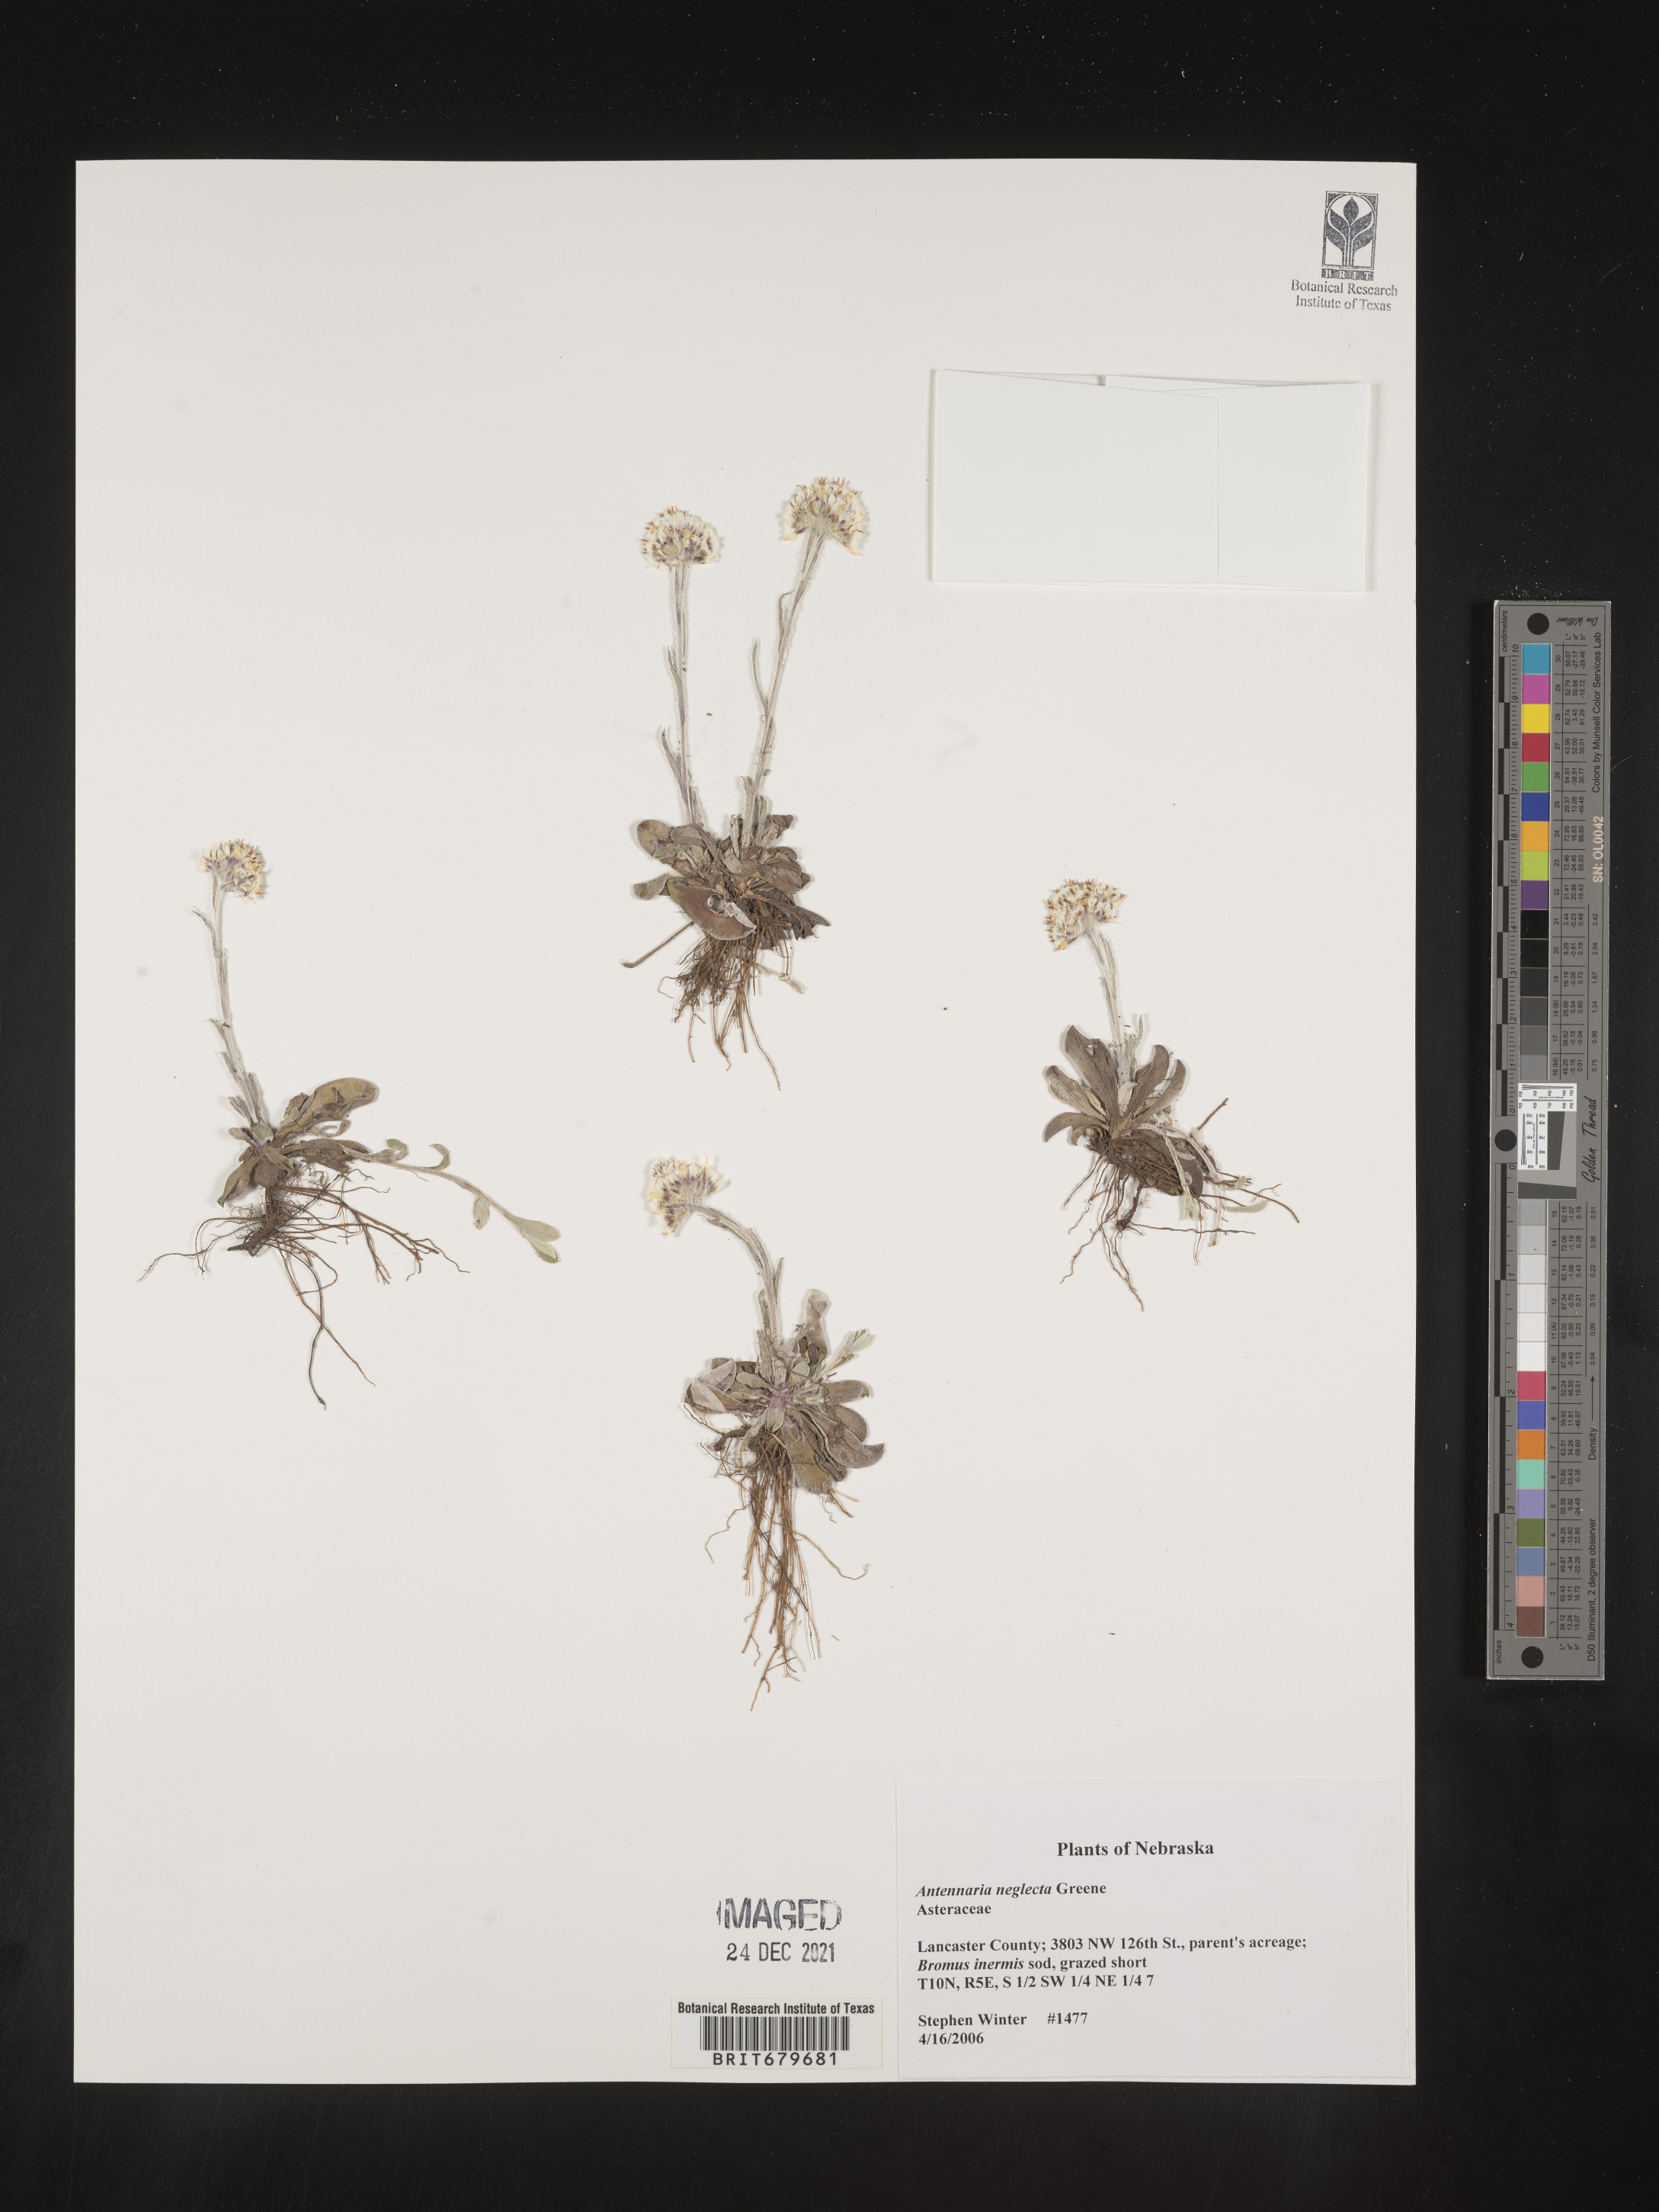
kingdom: Plantae
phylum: Tracheophyta
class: Magnoliopsida
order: Asterales
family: Asteraceae
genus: Antennaria
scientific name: Antennaria neglecta
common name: Field pussytoes
